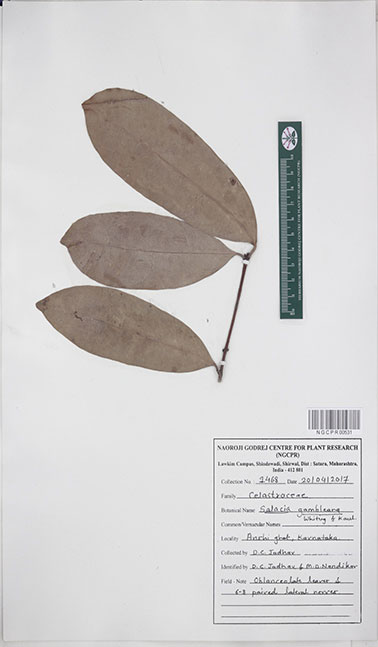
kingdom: Plantae
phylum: Tracheophyta
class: Magnoliopsida
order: Celastrales
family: Celastraceae
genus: Salacia
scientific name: Salacia gambleana
